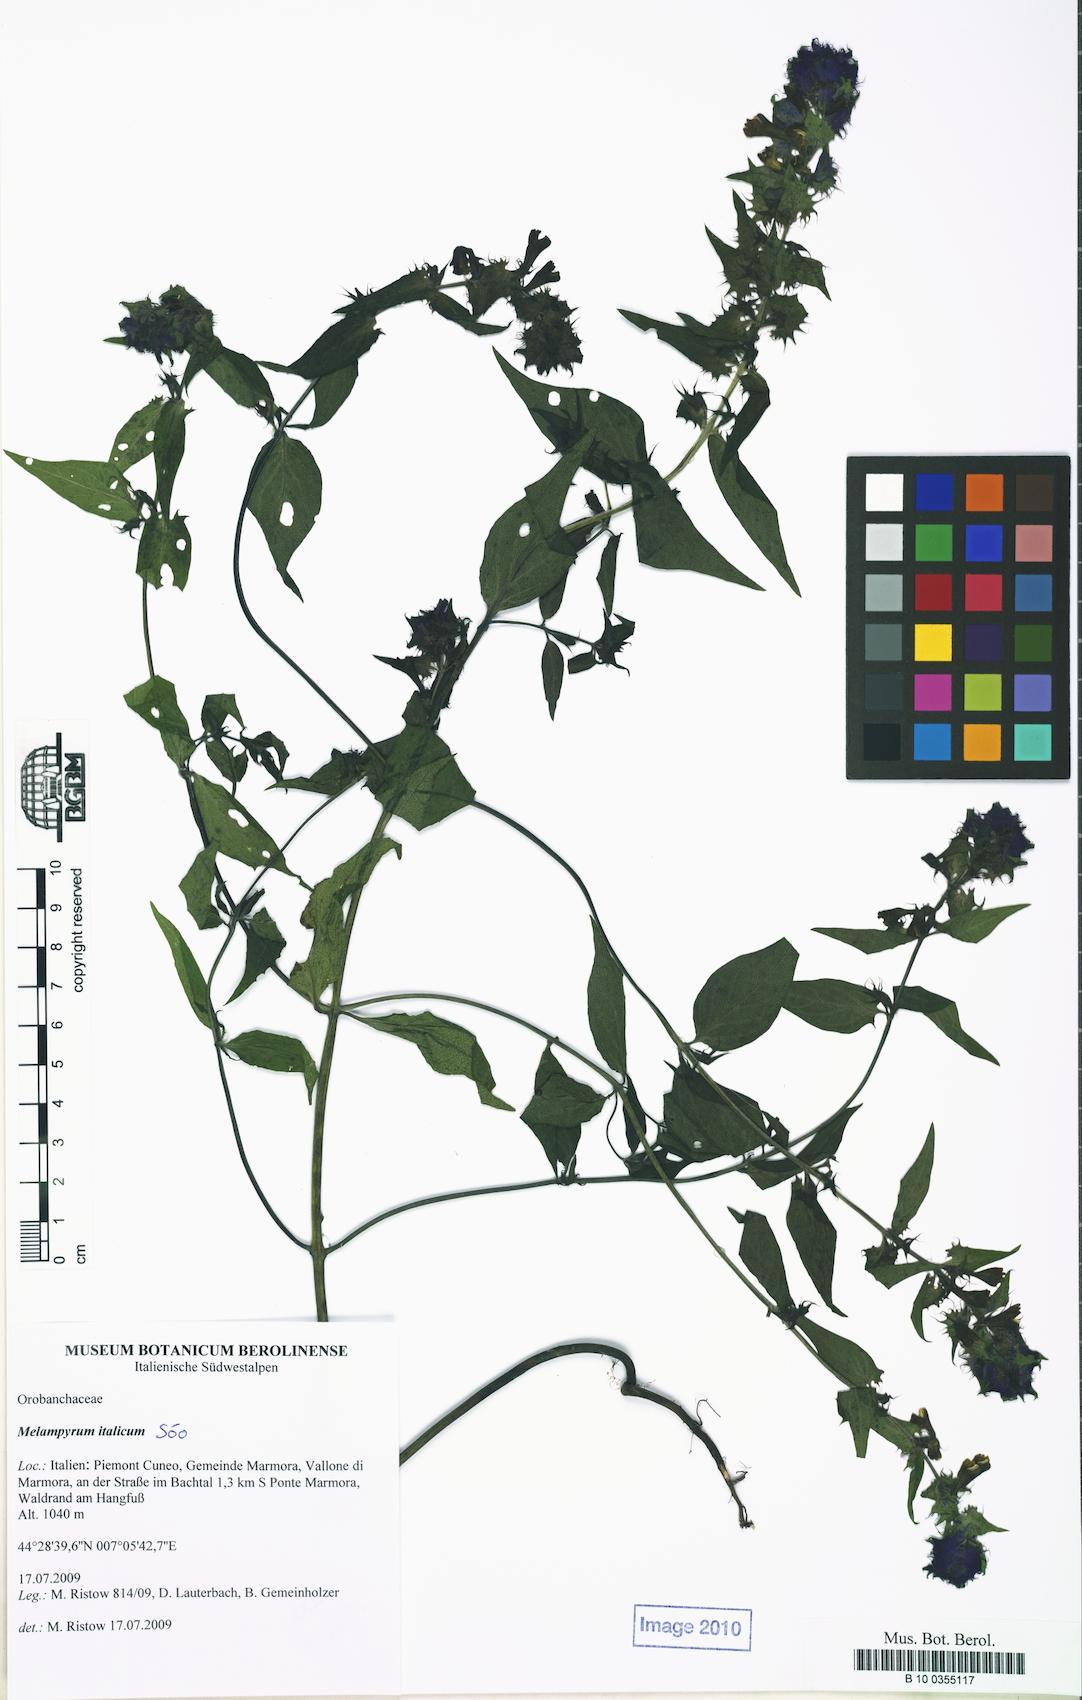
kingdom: Plantae
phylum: Tracheophyta
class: Magnoliopsida
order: Lamiales
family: Orobanchaceae
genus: Melampyrum
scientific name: Melampyrum italicum
